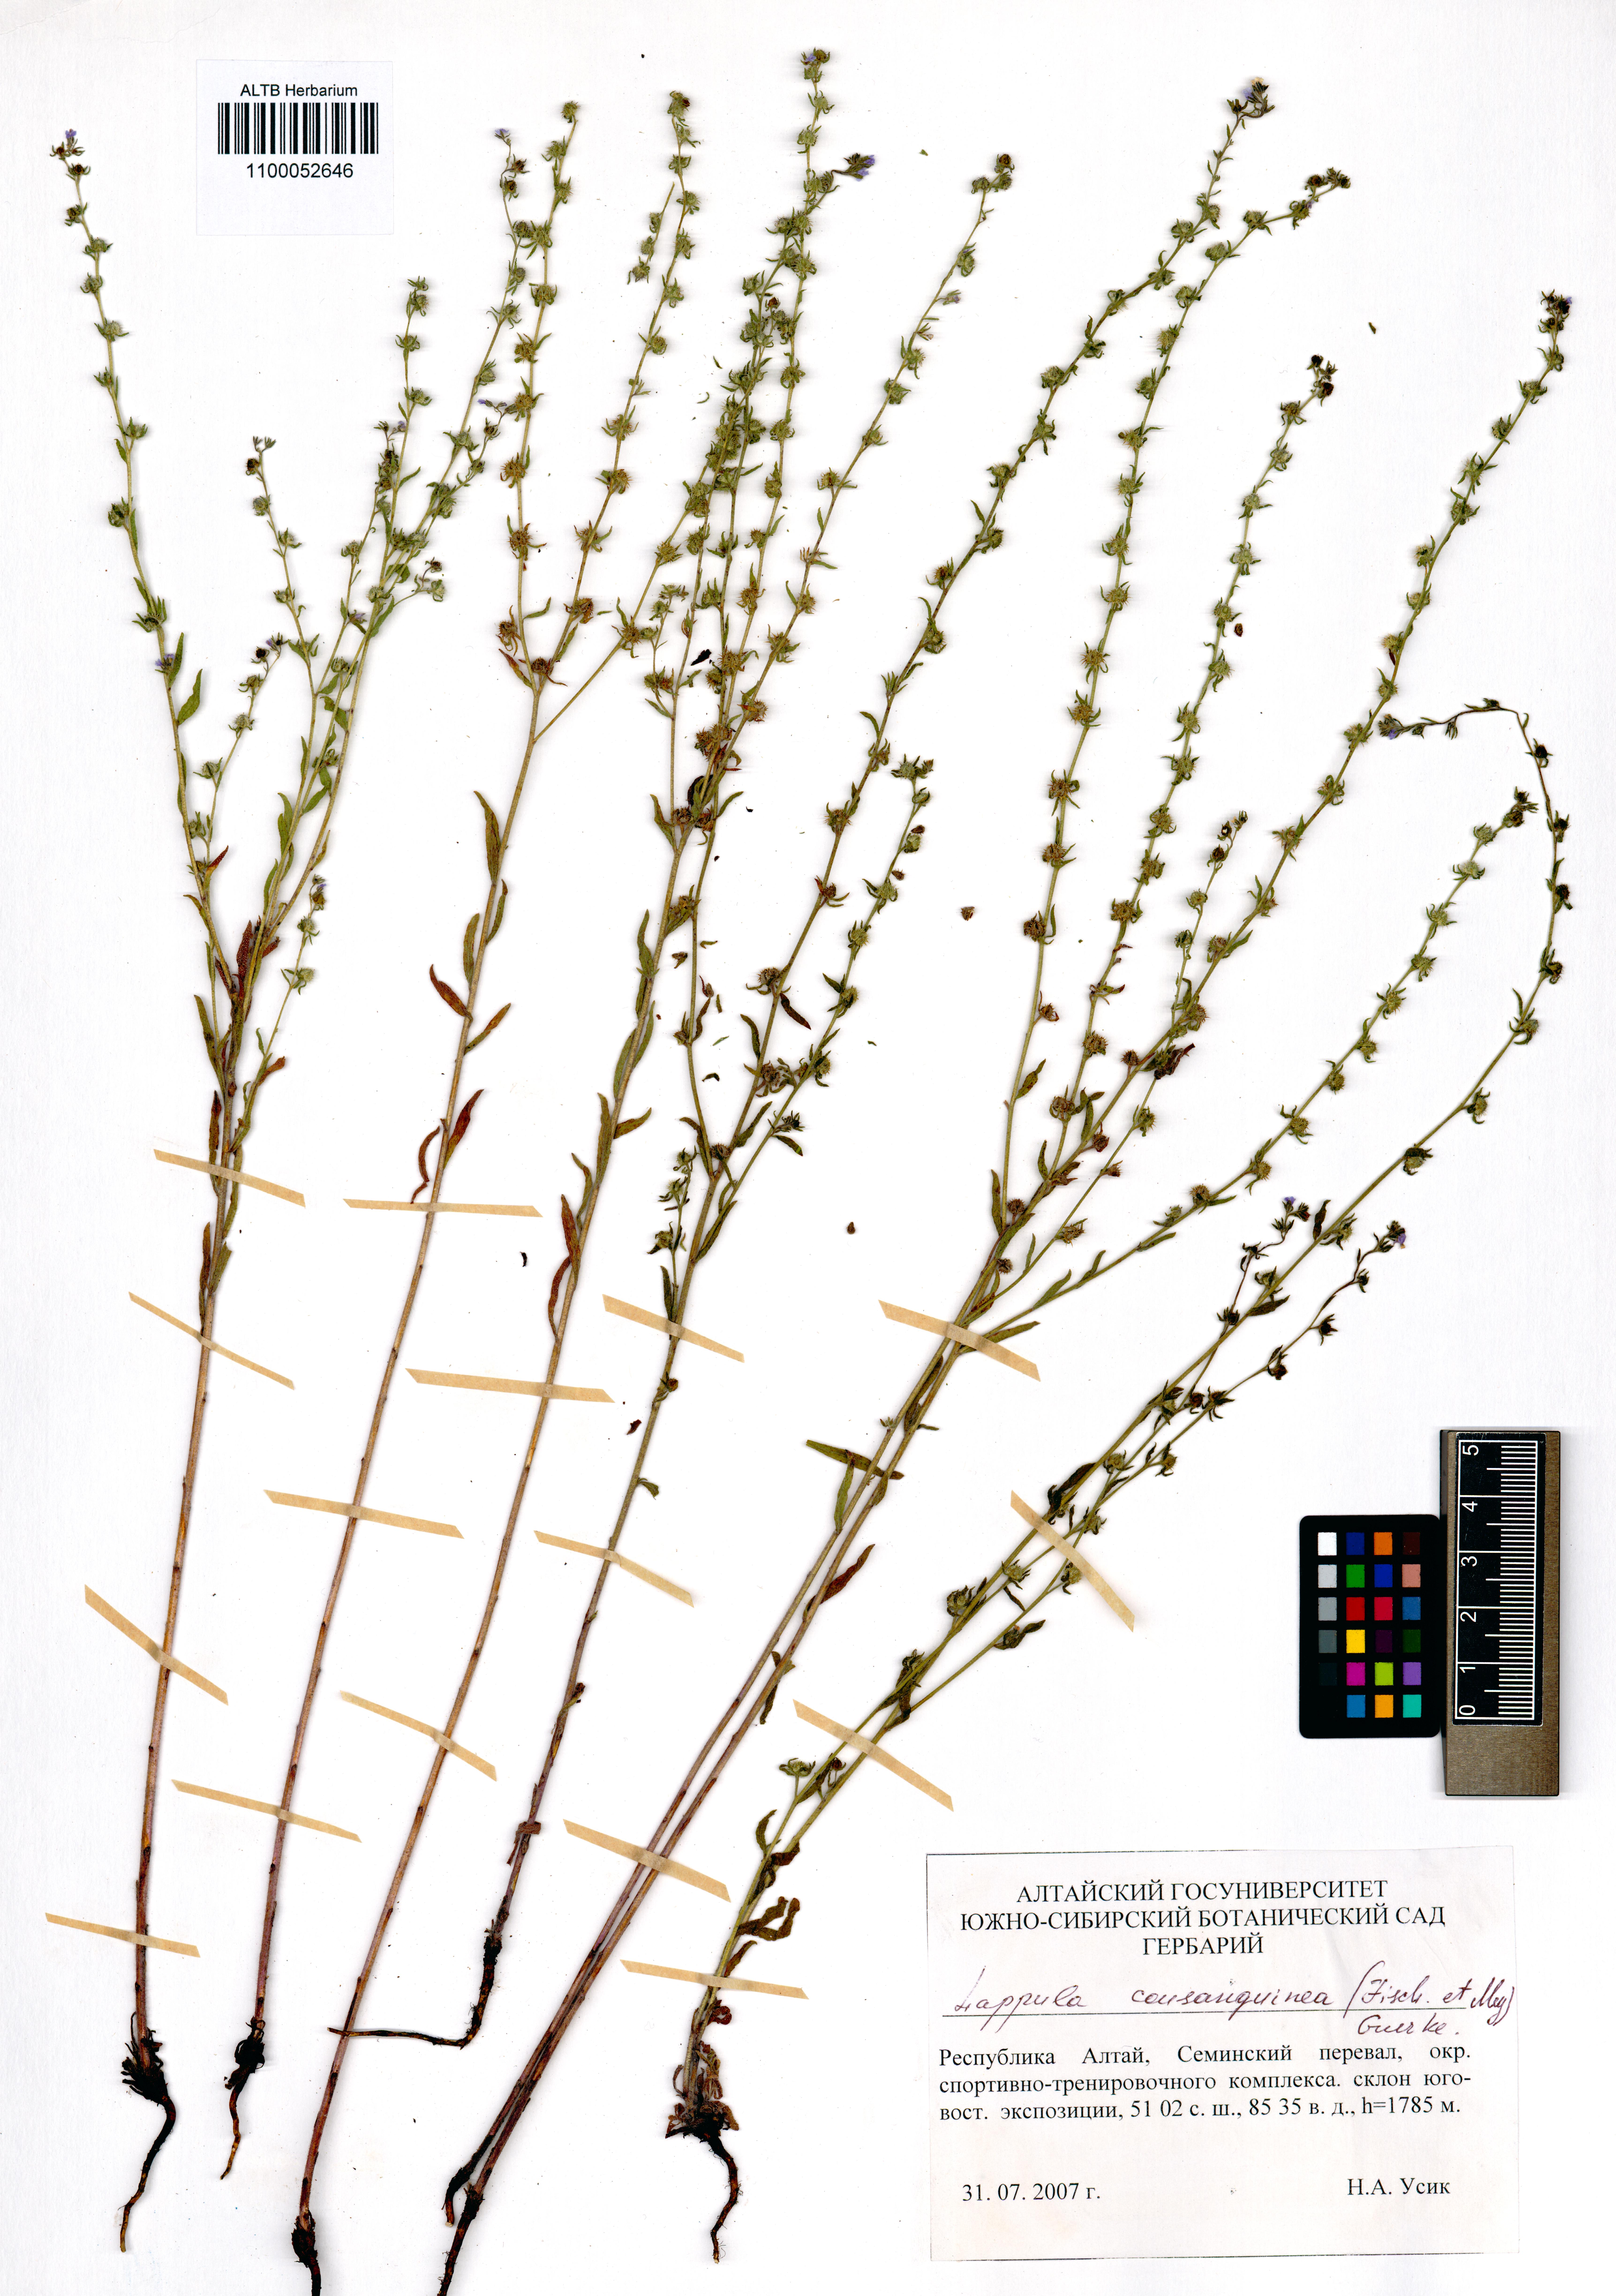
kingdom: Plantae
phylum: Tracheophyta
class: Magnoliopsida
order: Boraginales
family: Boraginaceae
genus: Lappula
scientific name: Lappula squarrosa
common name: European stickseed
